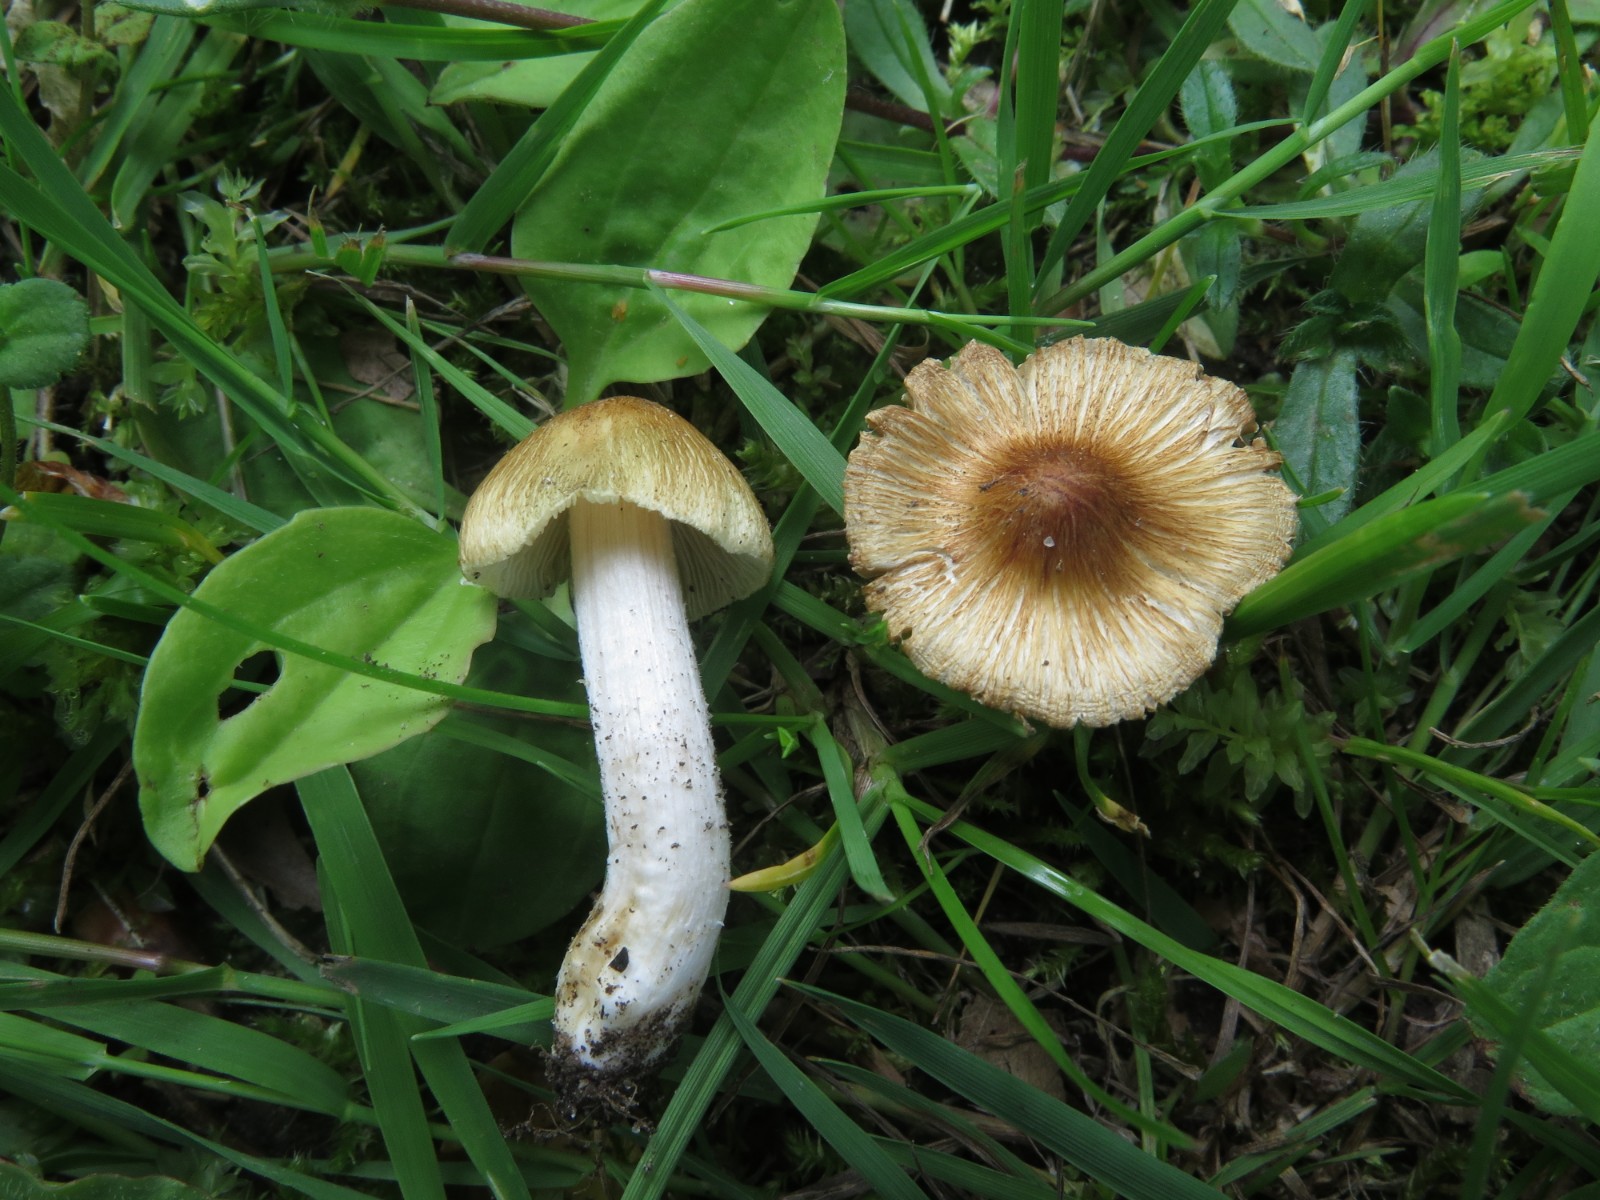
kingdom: Fungi
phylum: Basidiomycota
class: Agaricomycetes
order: Agaricales
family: Inocybaceae
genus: Pseudosperma
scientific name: Pseudosperma rimosum
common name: gulbladet trævlhat
